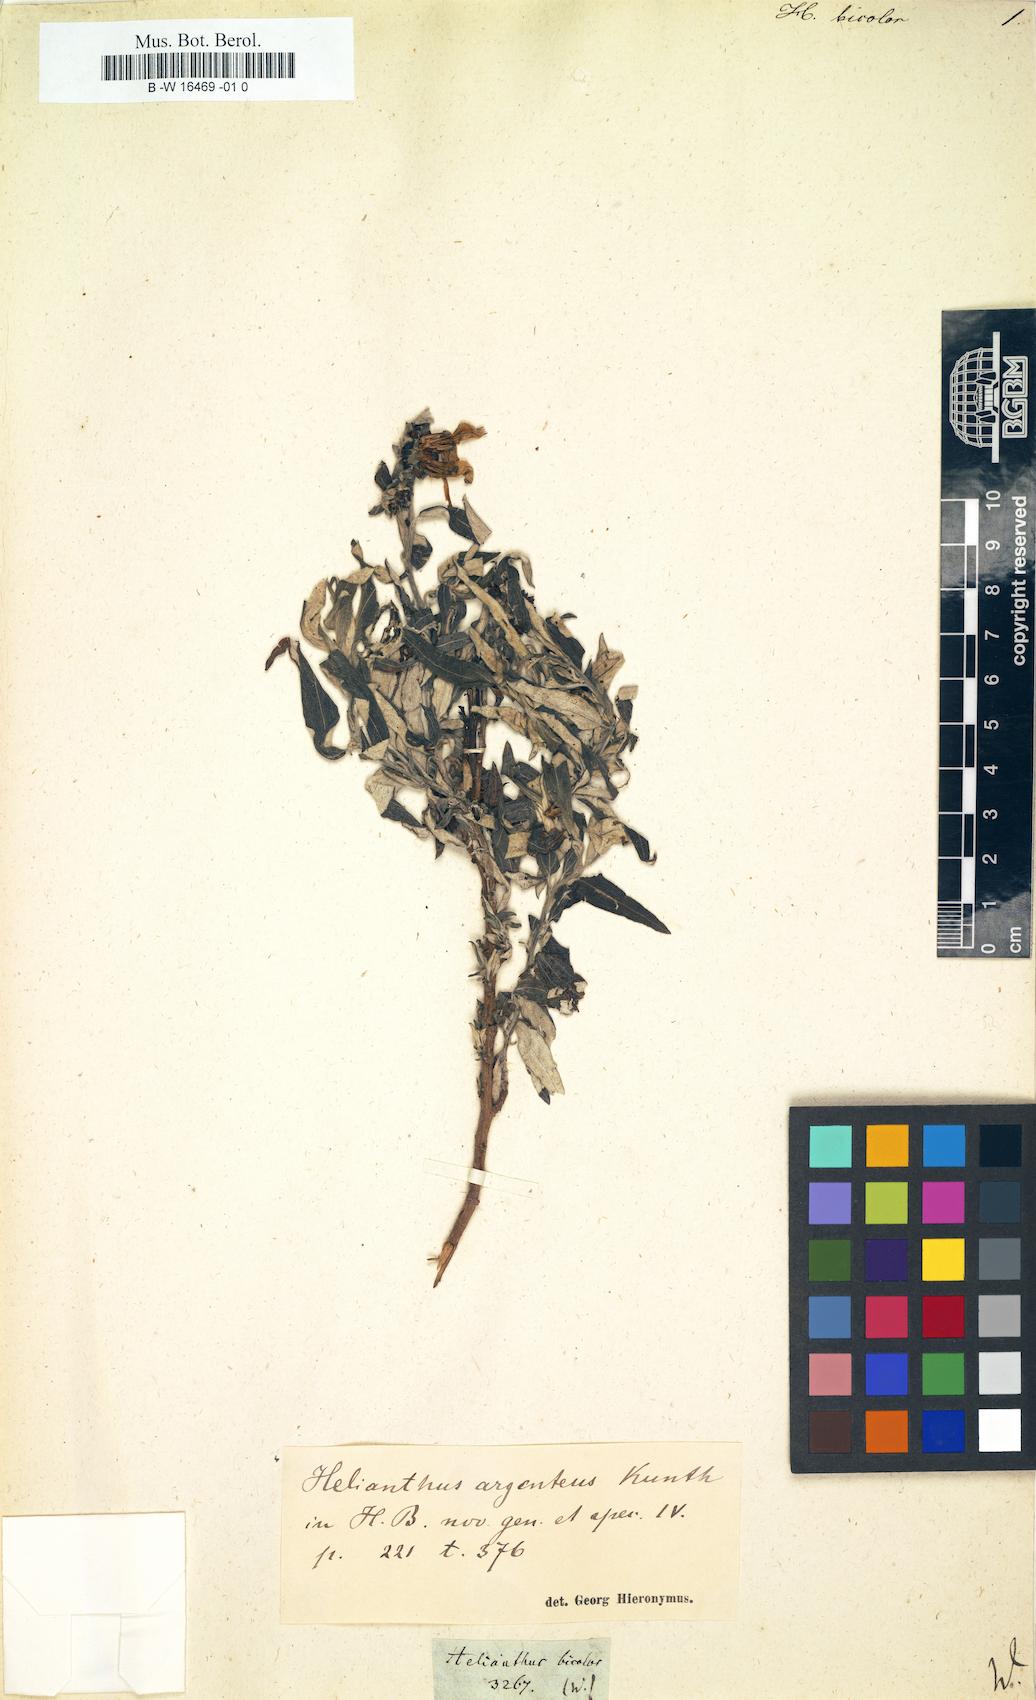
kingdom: Plantae
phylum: Tracheophyta
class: Magnoliopsida
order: Asterales
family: Asteraceae
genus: Helianthus
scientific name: Helianthus
